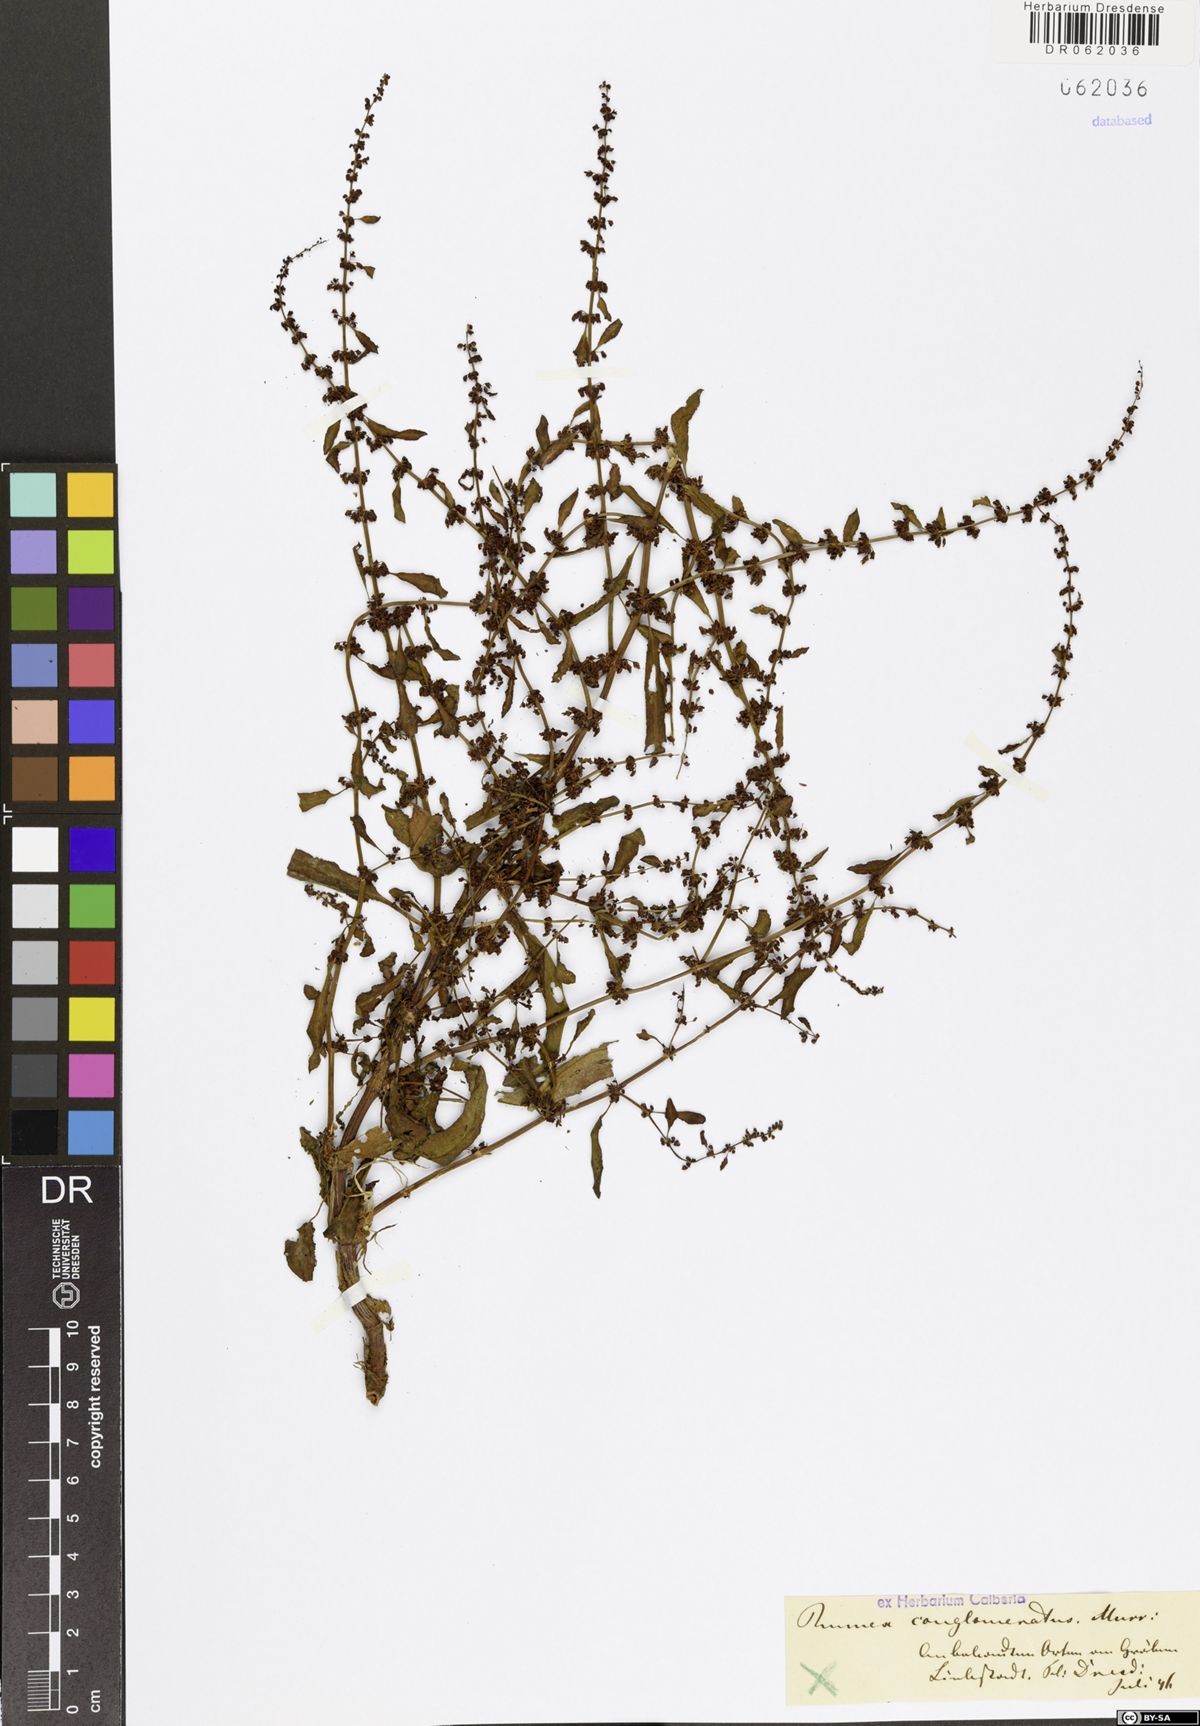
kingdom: Plantae
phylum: Tracheophyta
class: Magnoliopsida
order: Caryophyllales
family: Polygonaceae
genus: Rumex
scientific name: Rumex conglomeratus
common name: Clustered dock
